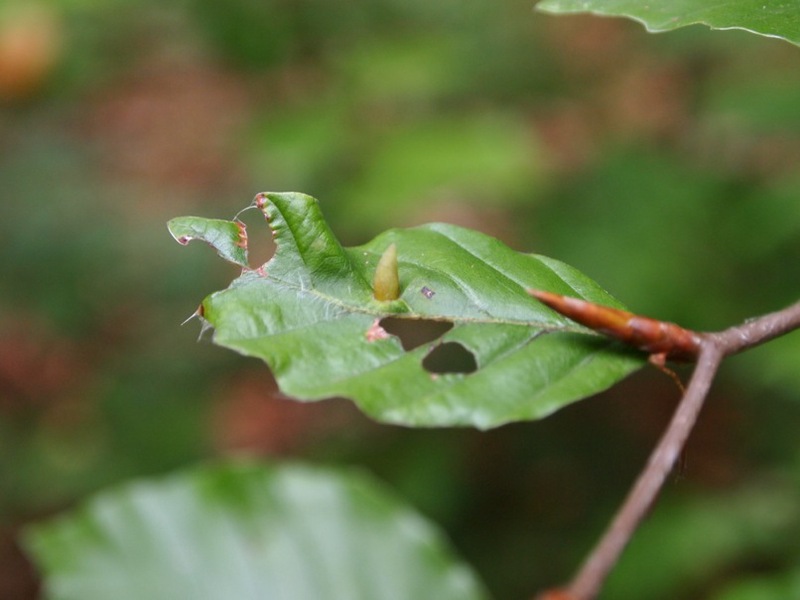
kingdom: Animalia
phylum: Arthropoda
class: Insecta
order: Diptera
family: Cecidomyiidae
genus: Mikiola
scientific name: Mikiola fagi
